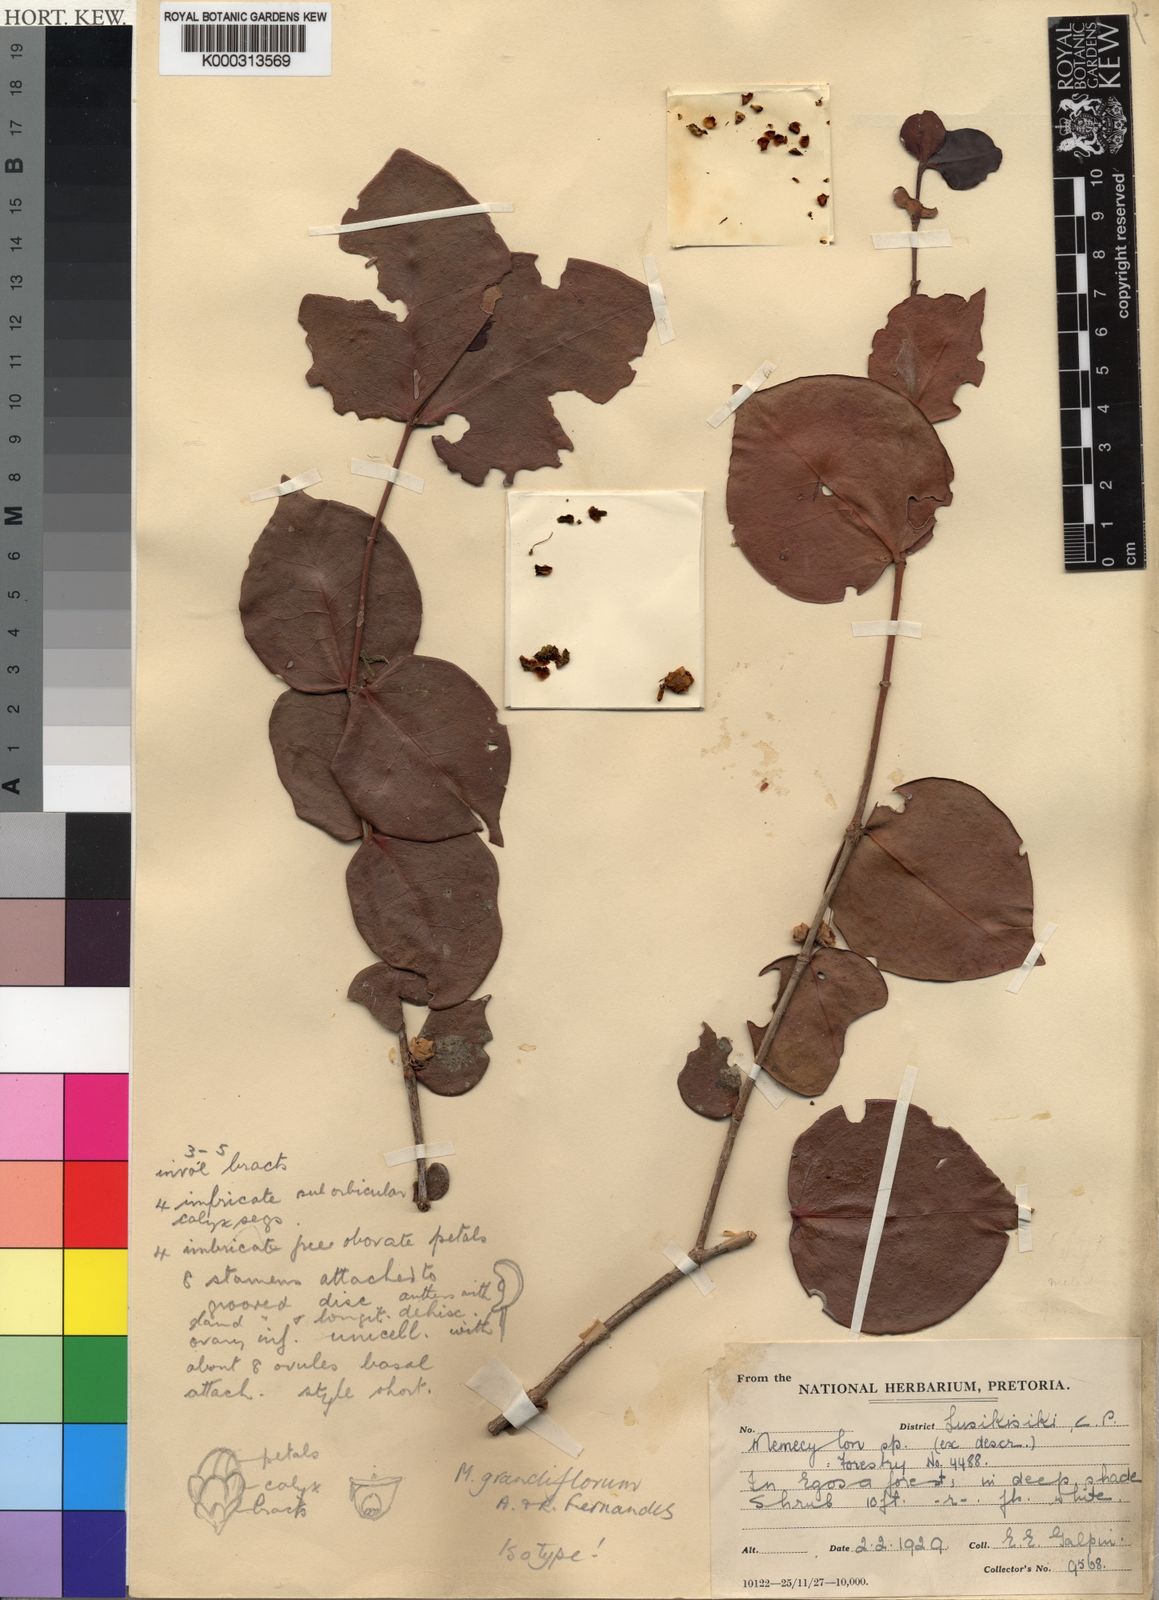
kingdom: Plantae
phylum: Tracheophyta
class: Magnoliopsida
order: Myrtales
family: Melastomataceae
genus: Spathandra
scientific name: Spathandra blakeoides
